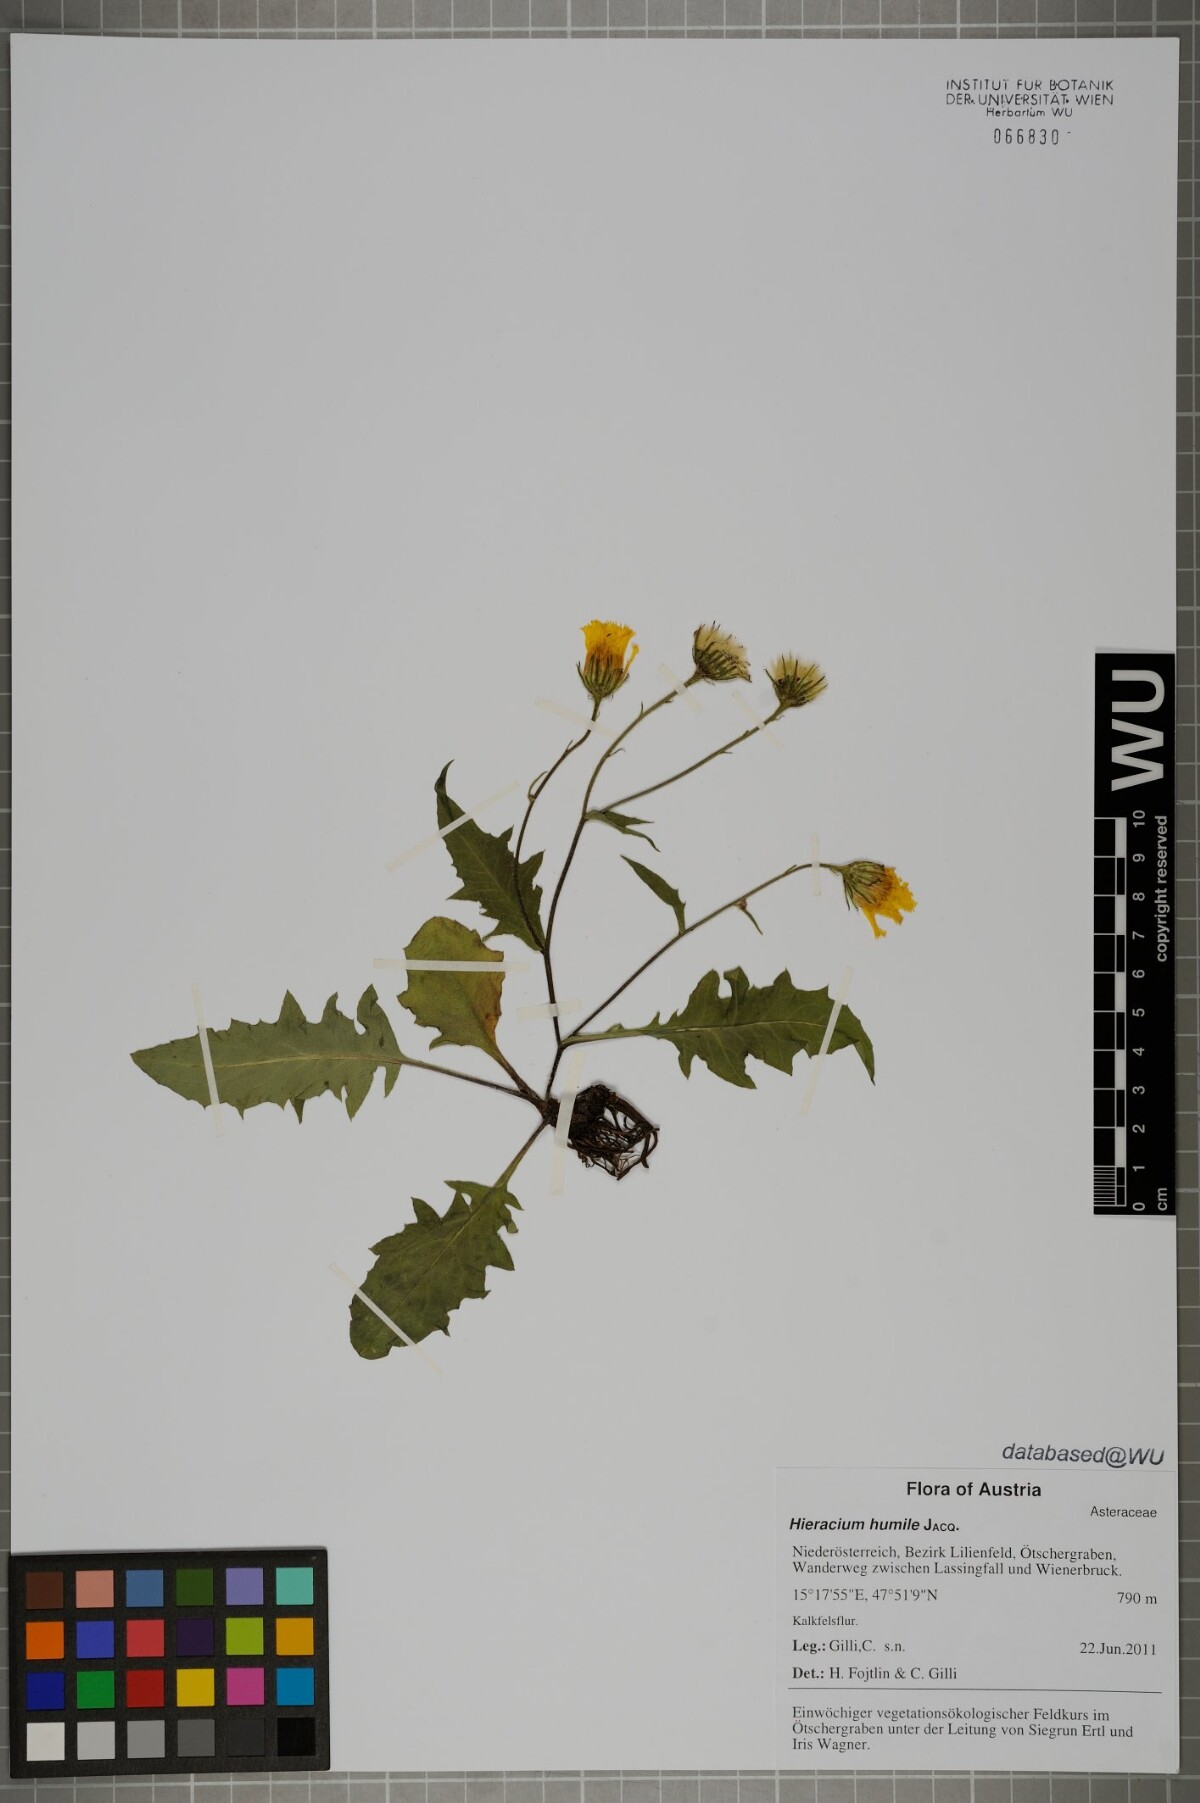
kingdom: Plantae
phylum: Tracheophyta
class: Magnoliopsida
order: Asterales
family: Asteraceae
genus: Hieracium
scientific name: Hieracium humile
